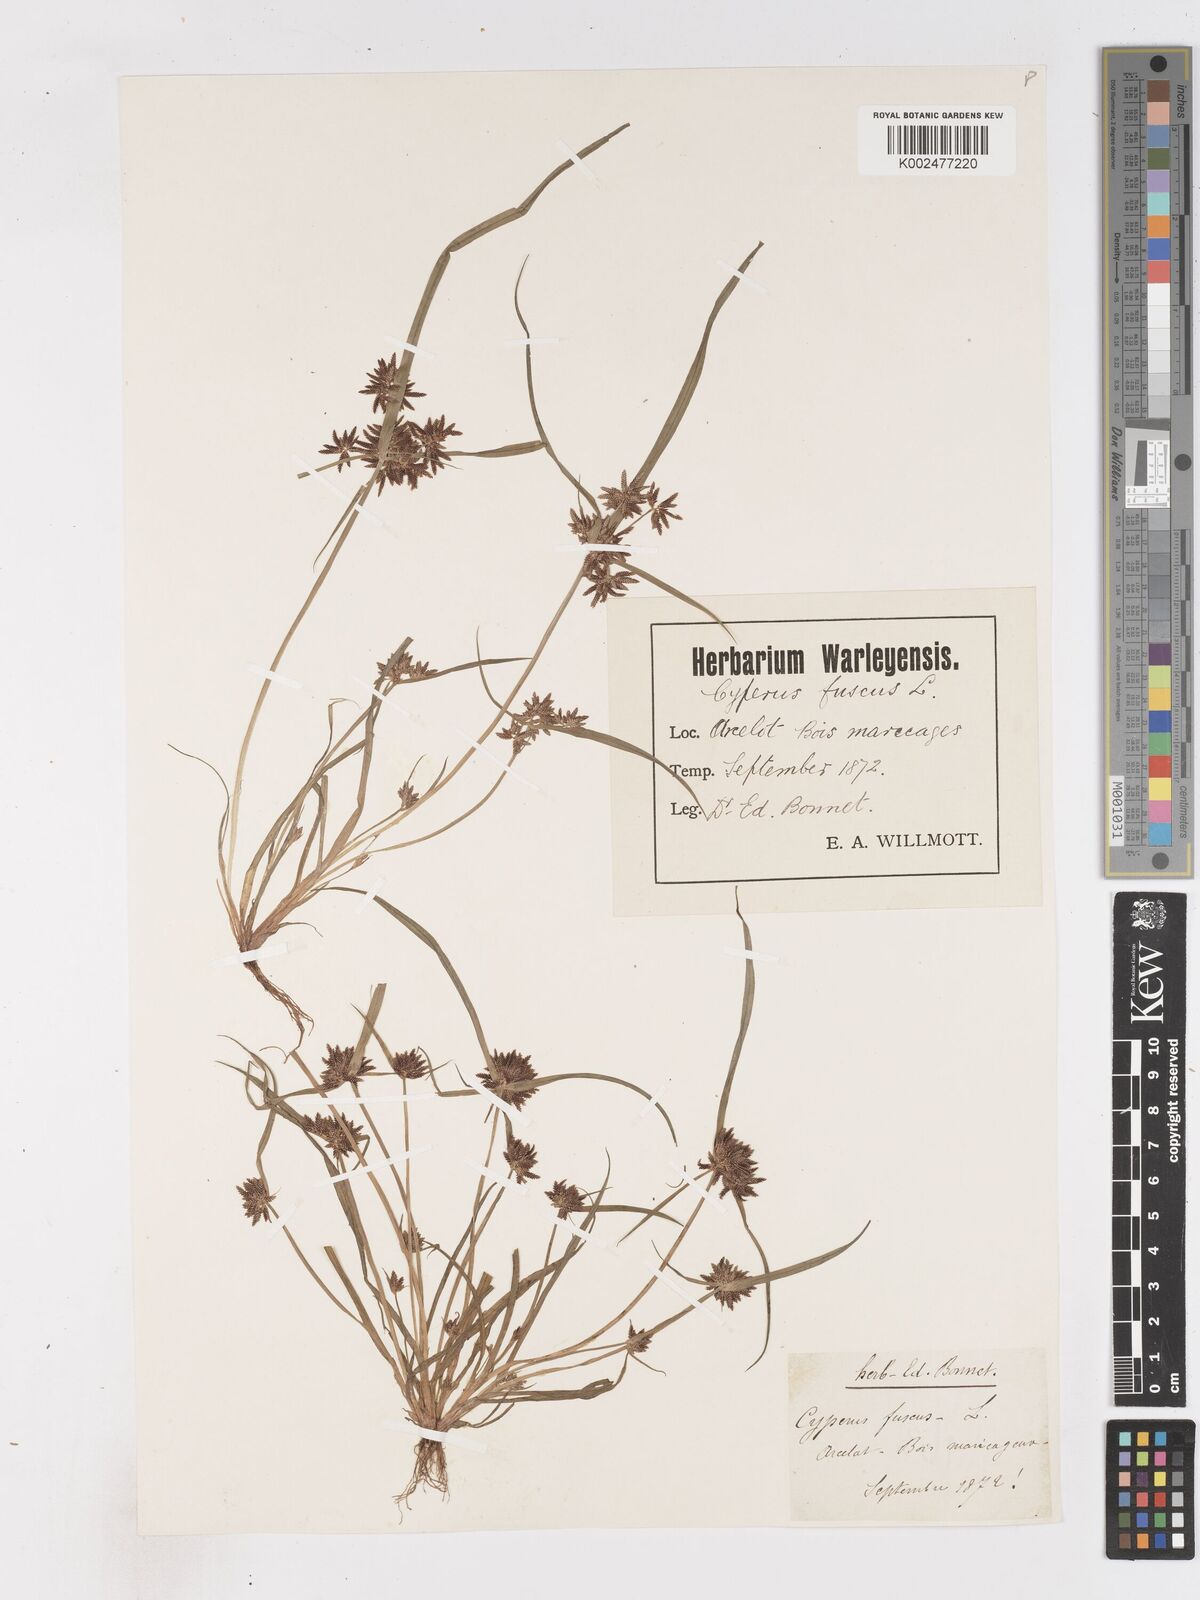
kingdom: Plantae
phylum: Tracheophyta
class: Liliopsida
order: Poales
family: Cyperaceae
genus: Cyperus
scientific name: Cyperus fuscus
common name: Brown galingale
